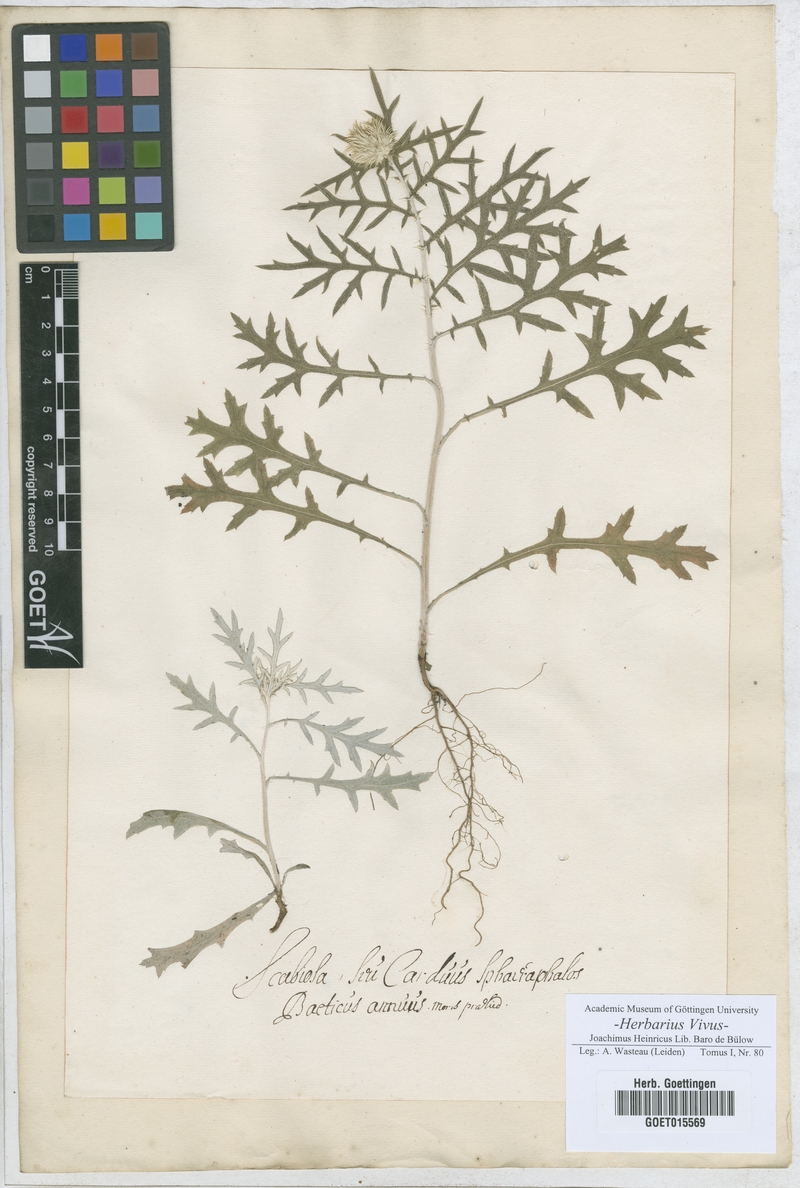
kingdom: Plantae
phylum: Tracheophyta
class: Magnoliopsida
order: Asterales
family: Asteraceae
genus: Carduus
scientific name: Carduus nutans
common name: Musk thistle
